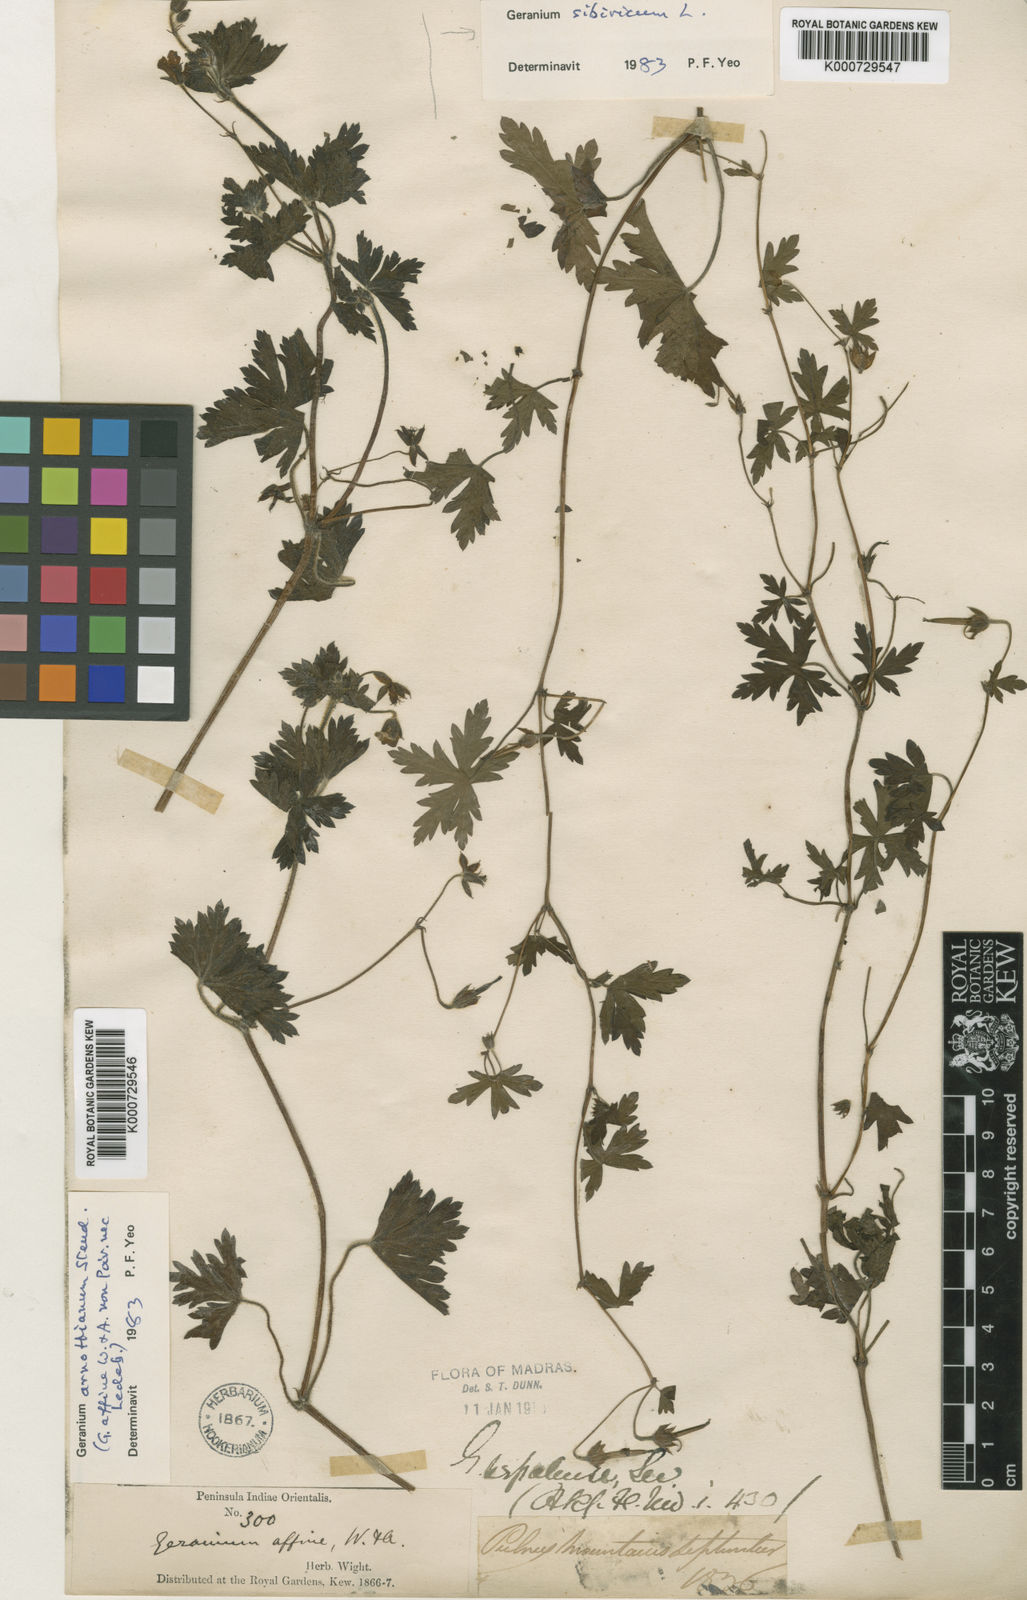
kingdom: Plantae
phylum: Tracheophyta
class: Magnoliopsida
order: Geraniales
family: Geraniaceae
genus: Geranium
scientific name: Geranium arnottianum
